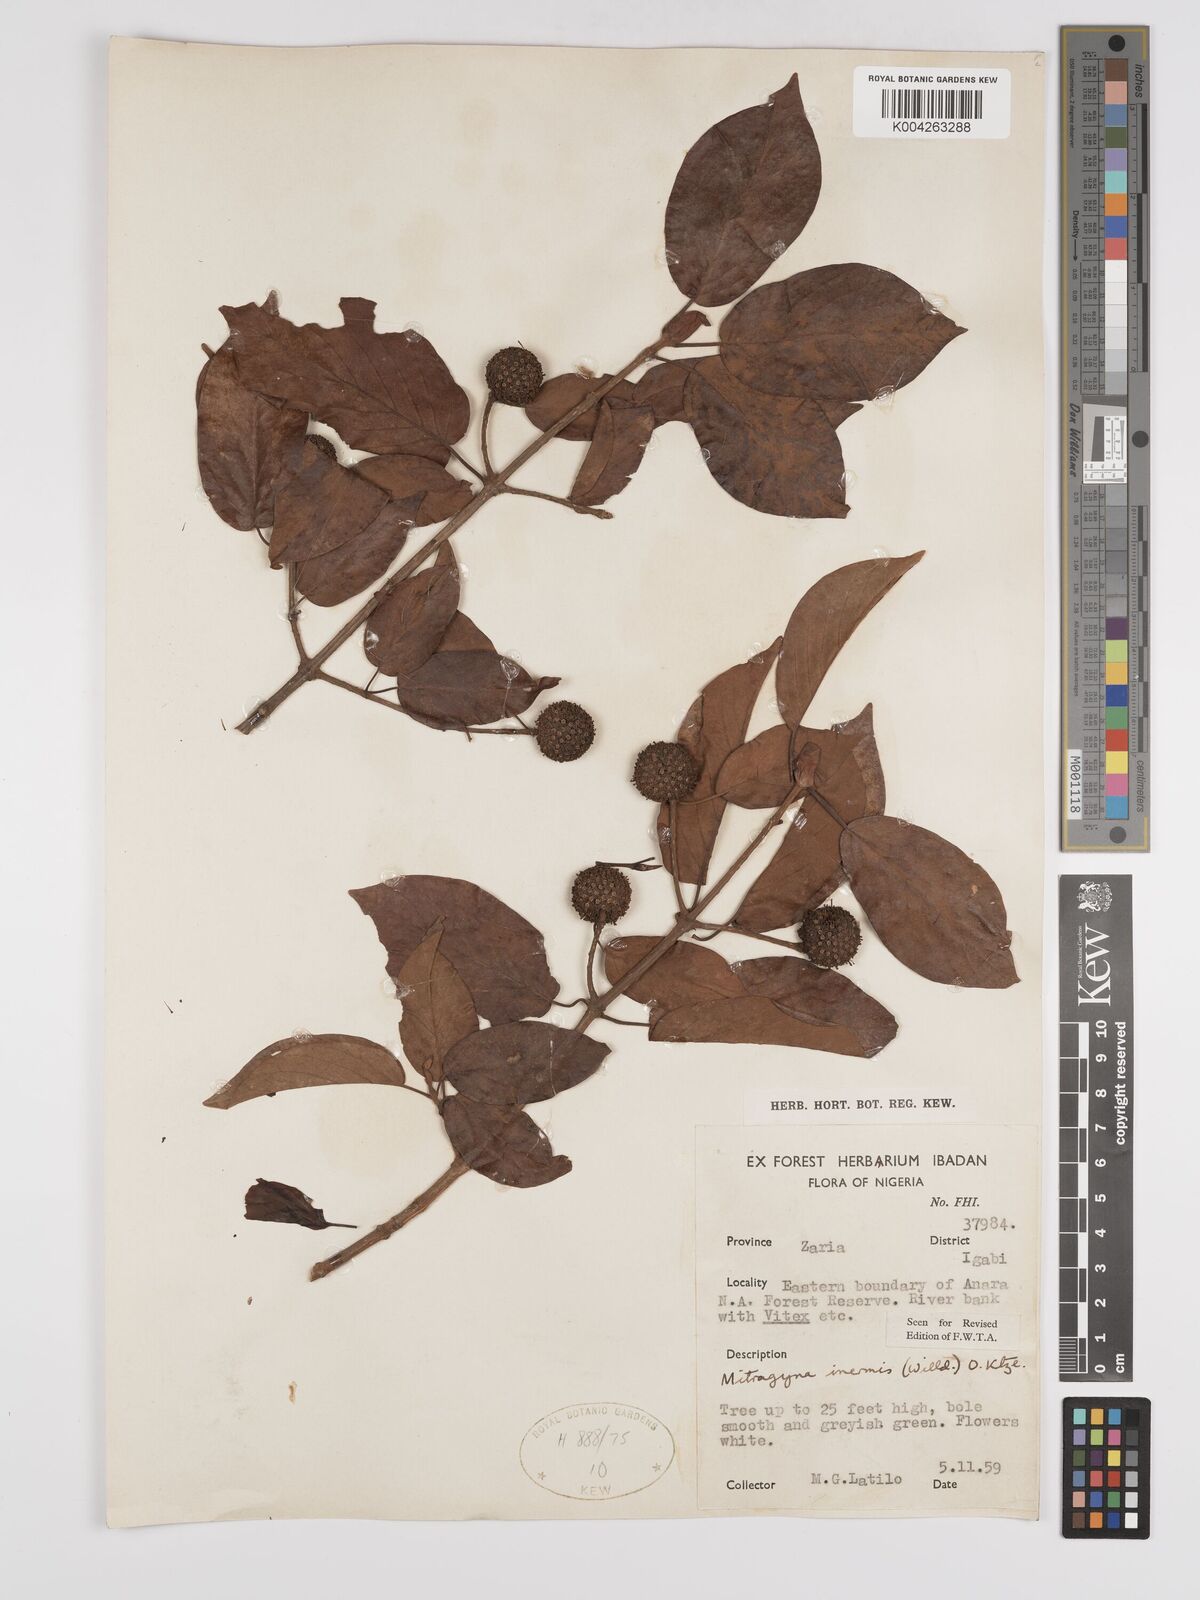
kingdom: Plantae
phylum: Tracheophyta
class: Magnoliopsida
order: Gentianales
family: Rubiaceae
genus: Mitragyna
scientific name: Mitragyna inermis
